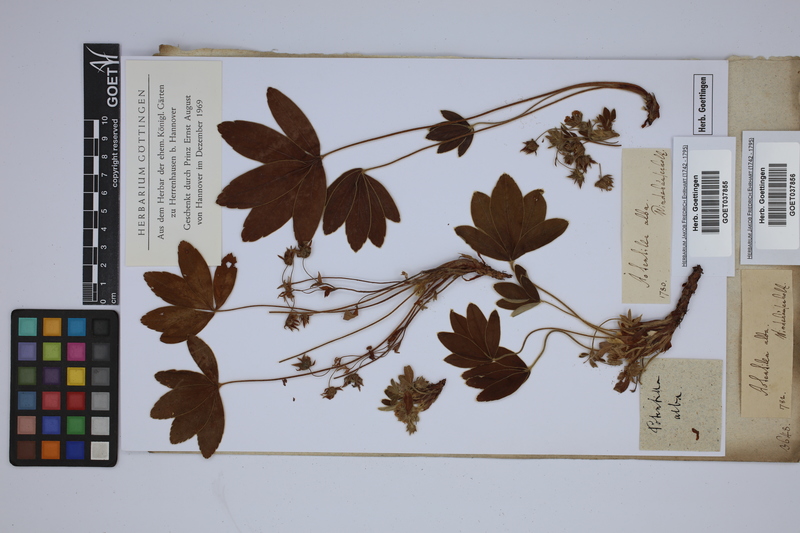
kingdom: Plantae
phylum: Tracheophyta
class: Magnoliopsida
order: Rosales
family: Rosaceae
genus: Potentilla
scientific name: Potentilla alba
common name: White cinquefoil
